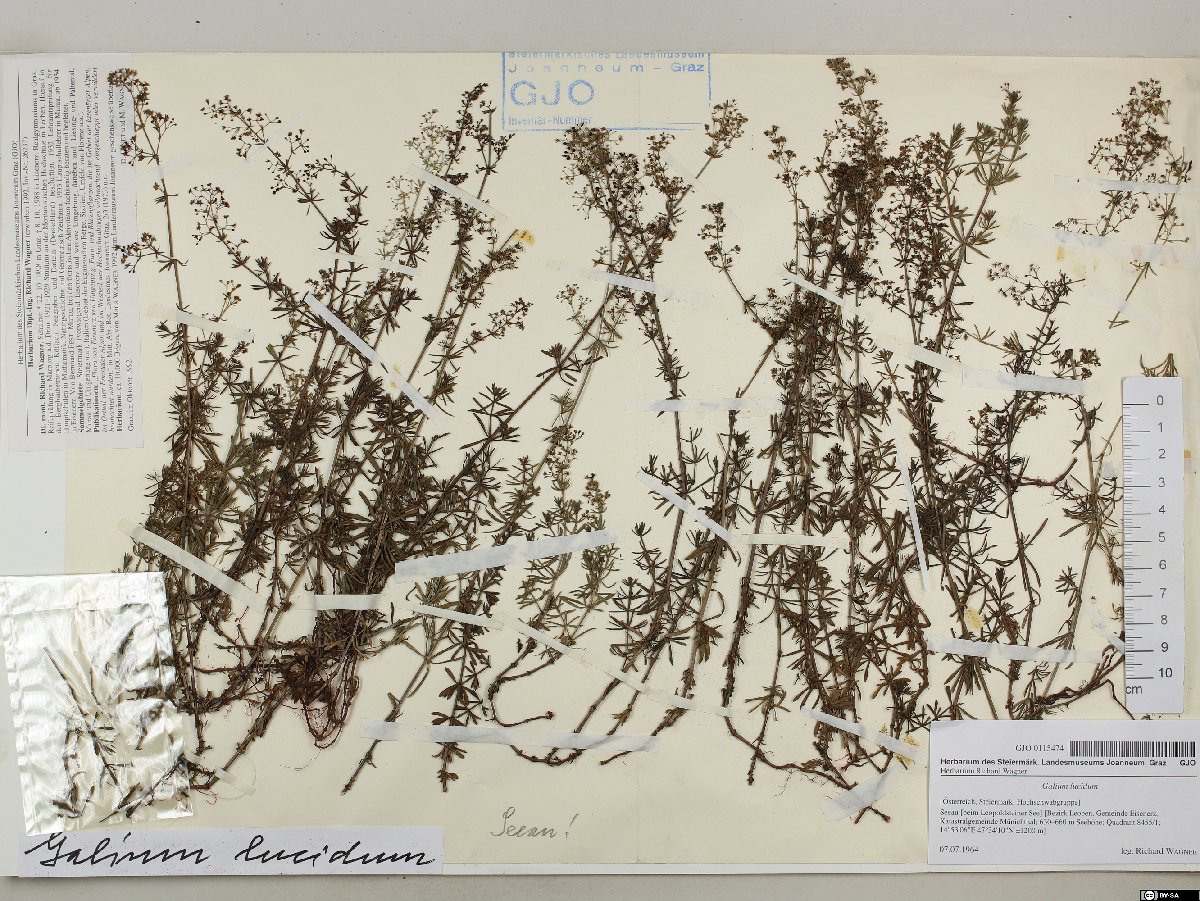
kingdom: Plantae
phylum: Tracheophyta
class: Magnoliopsida
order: Gentianales
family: Rubiaceae
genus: Galium
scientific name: Galium lucidum
